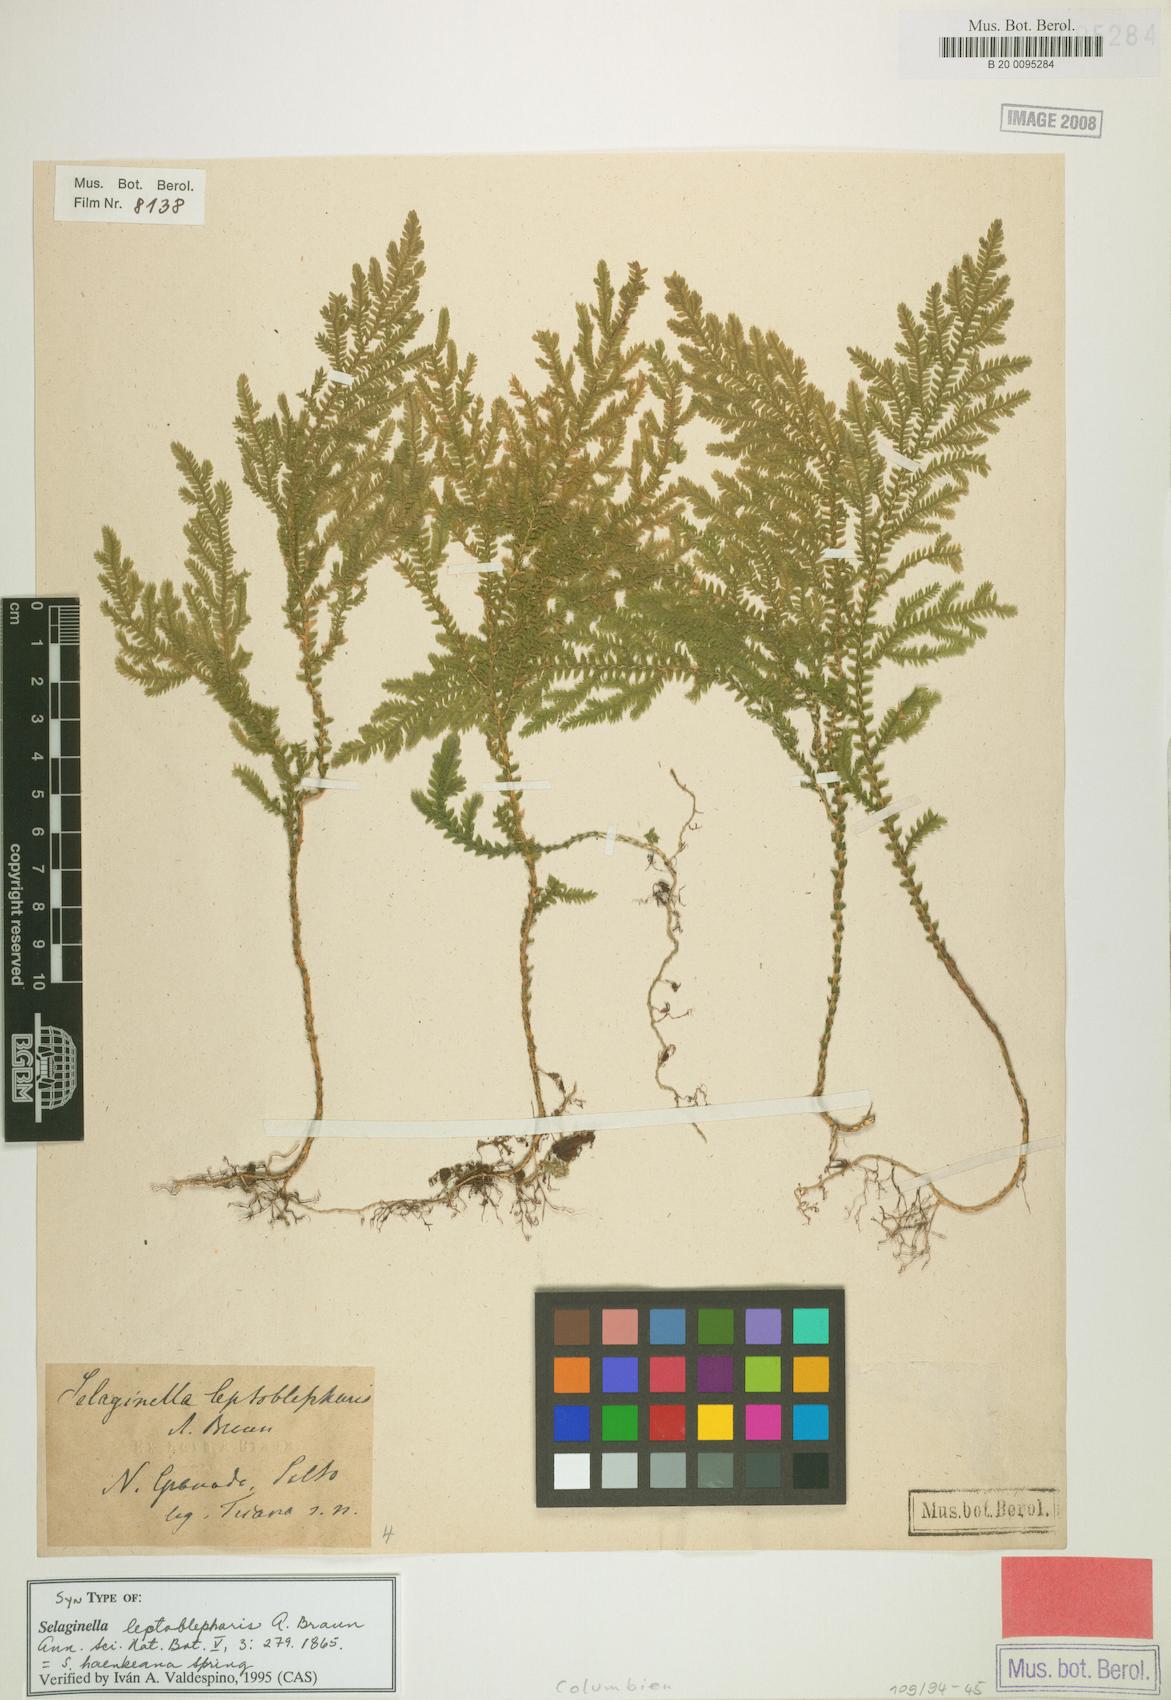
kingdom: Plantae
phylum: Tracheophyta
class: Lycopodiopsida
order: Selaginellales
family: Selaginellaceae
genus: Selaginella
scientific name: Selaginella haenkeana
